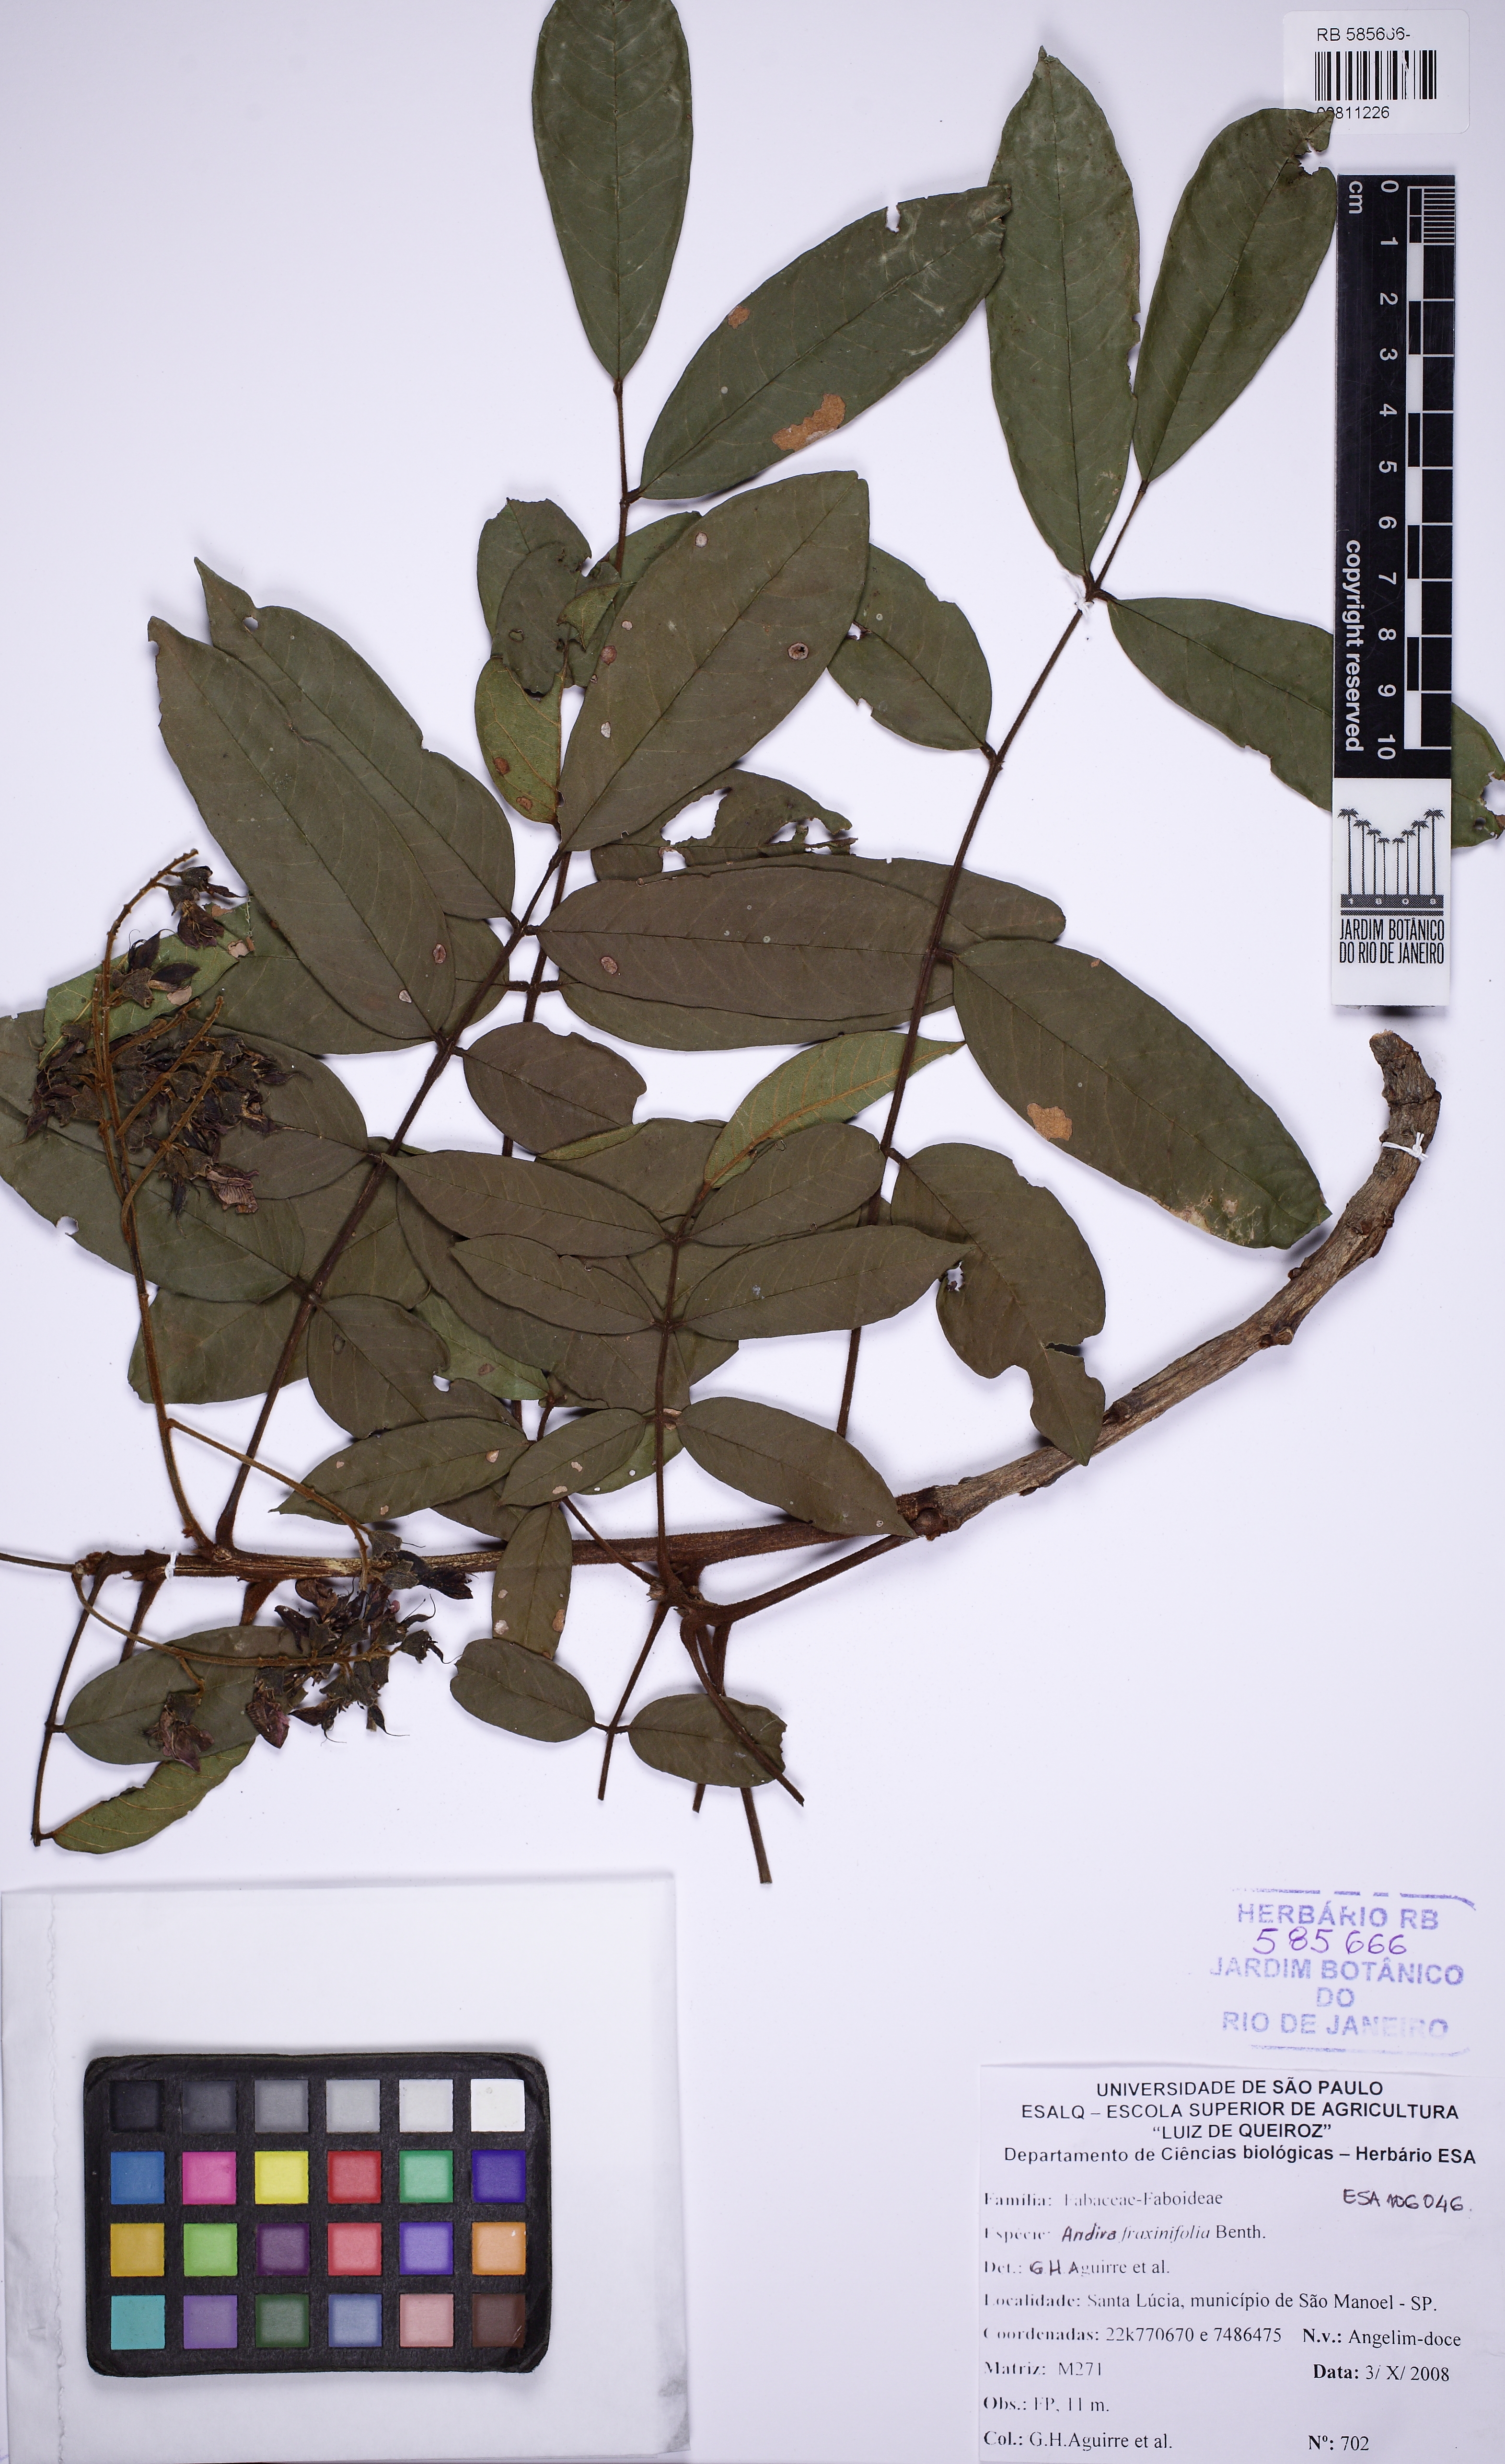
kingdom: Plantae
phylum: Tracheophyta
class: Magnoliopsida
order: Fabales
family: Fabaceae
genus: Andira
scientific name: Andira fraxinifolia
